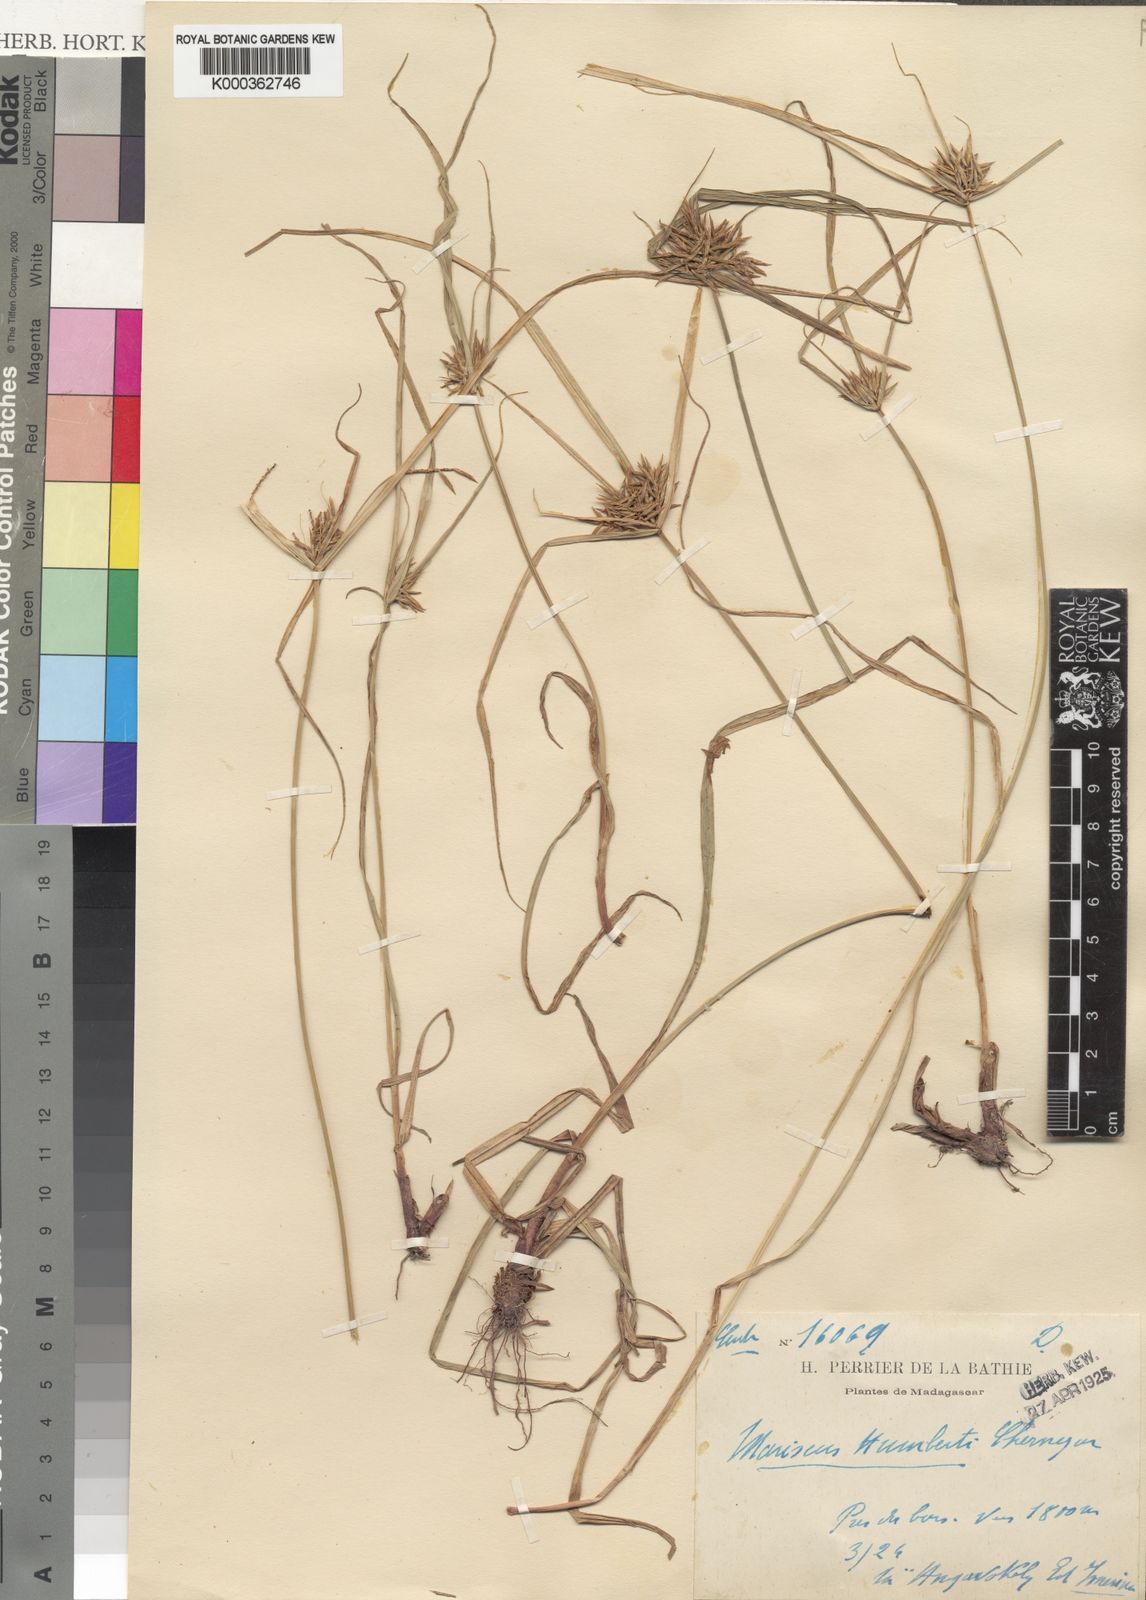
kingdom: Plantae
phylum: Tracheophyta
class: Liliopsida
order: Poales
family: Cyperaceae
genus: Cyperus
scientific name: Cyperus
